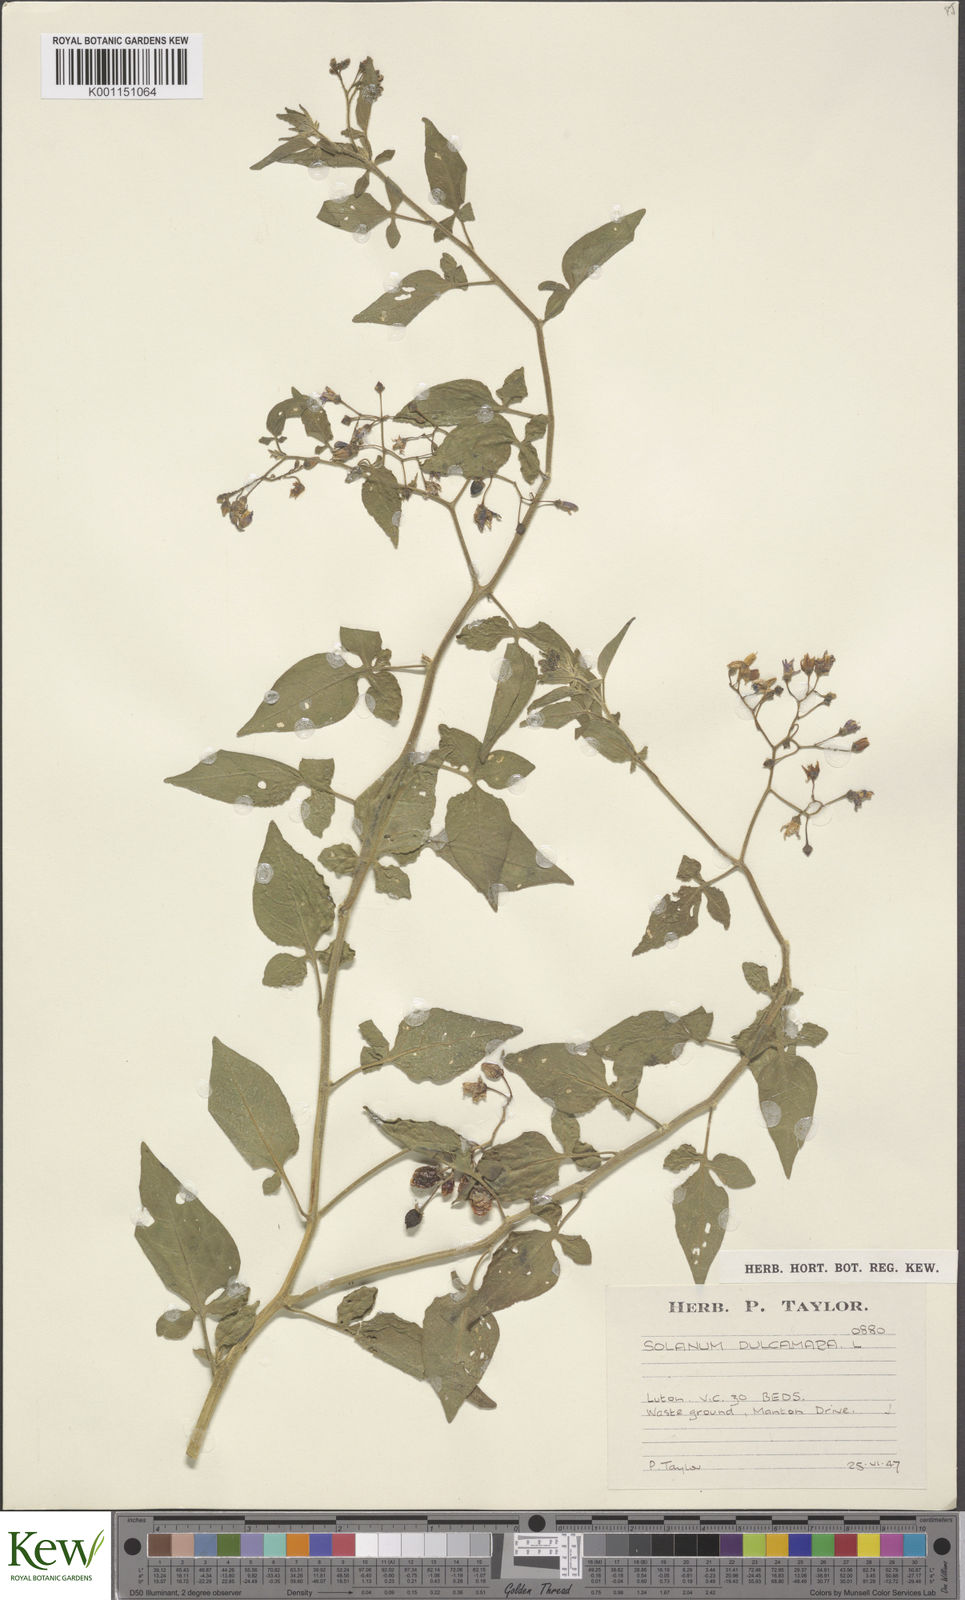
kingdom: Plantae
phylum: Tracheophyta
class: Magnoliopsida
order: Solanales
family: Solanaceae
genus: Solanum
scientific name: Solanum dulcamara
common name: Climbing nightshade
